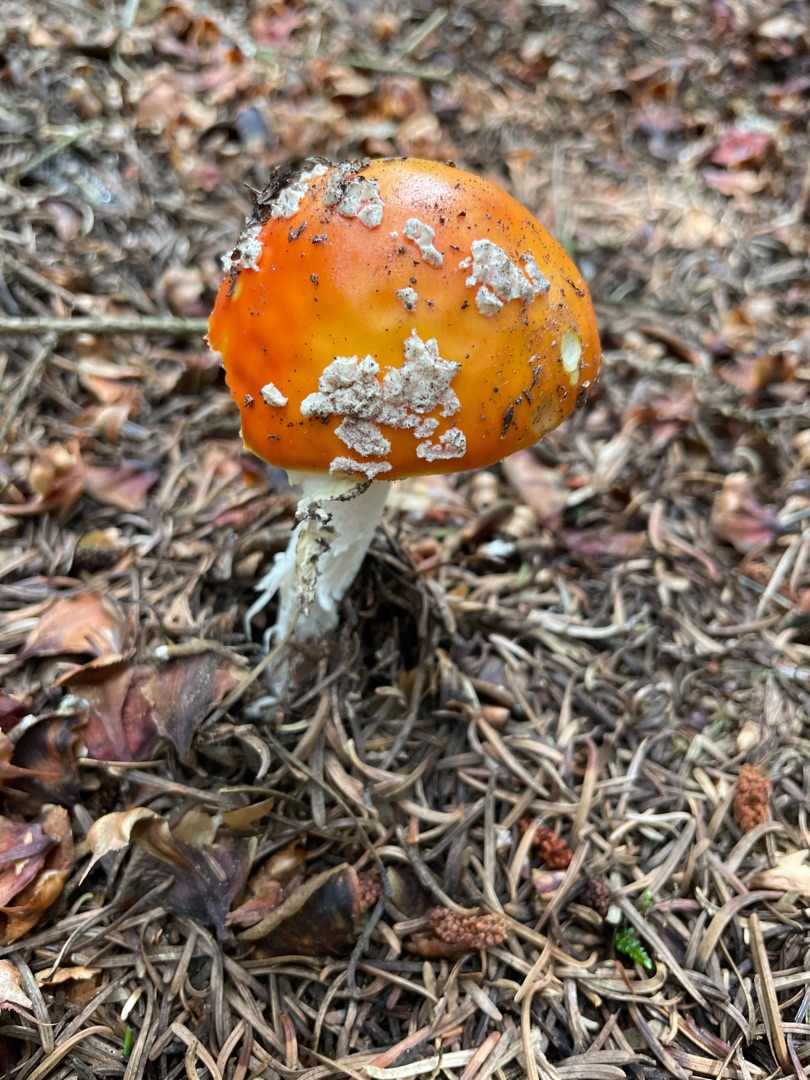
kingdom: Fungi
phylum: Basidiomycota
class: Agaricomycetes
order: Agaricales
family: Amanitaceae
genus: Amanita
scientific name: Amanita muscaria
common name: Rød fluesvamp
